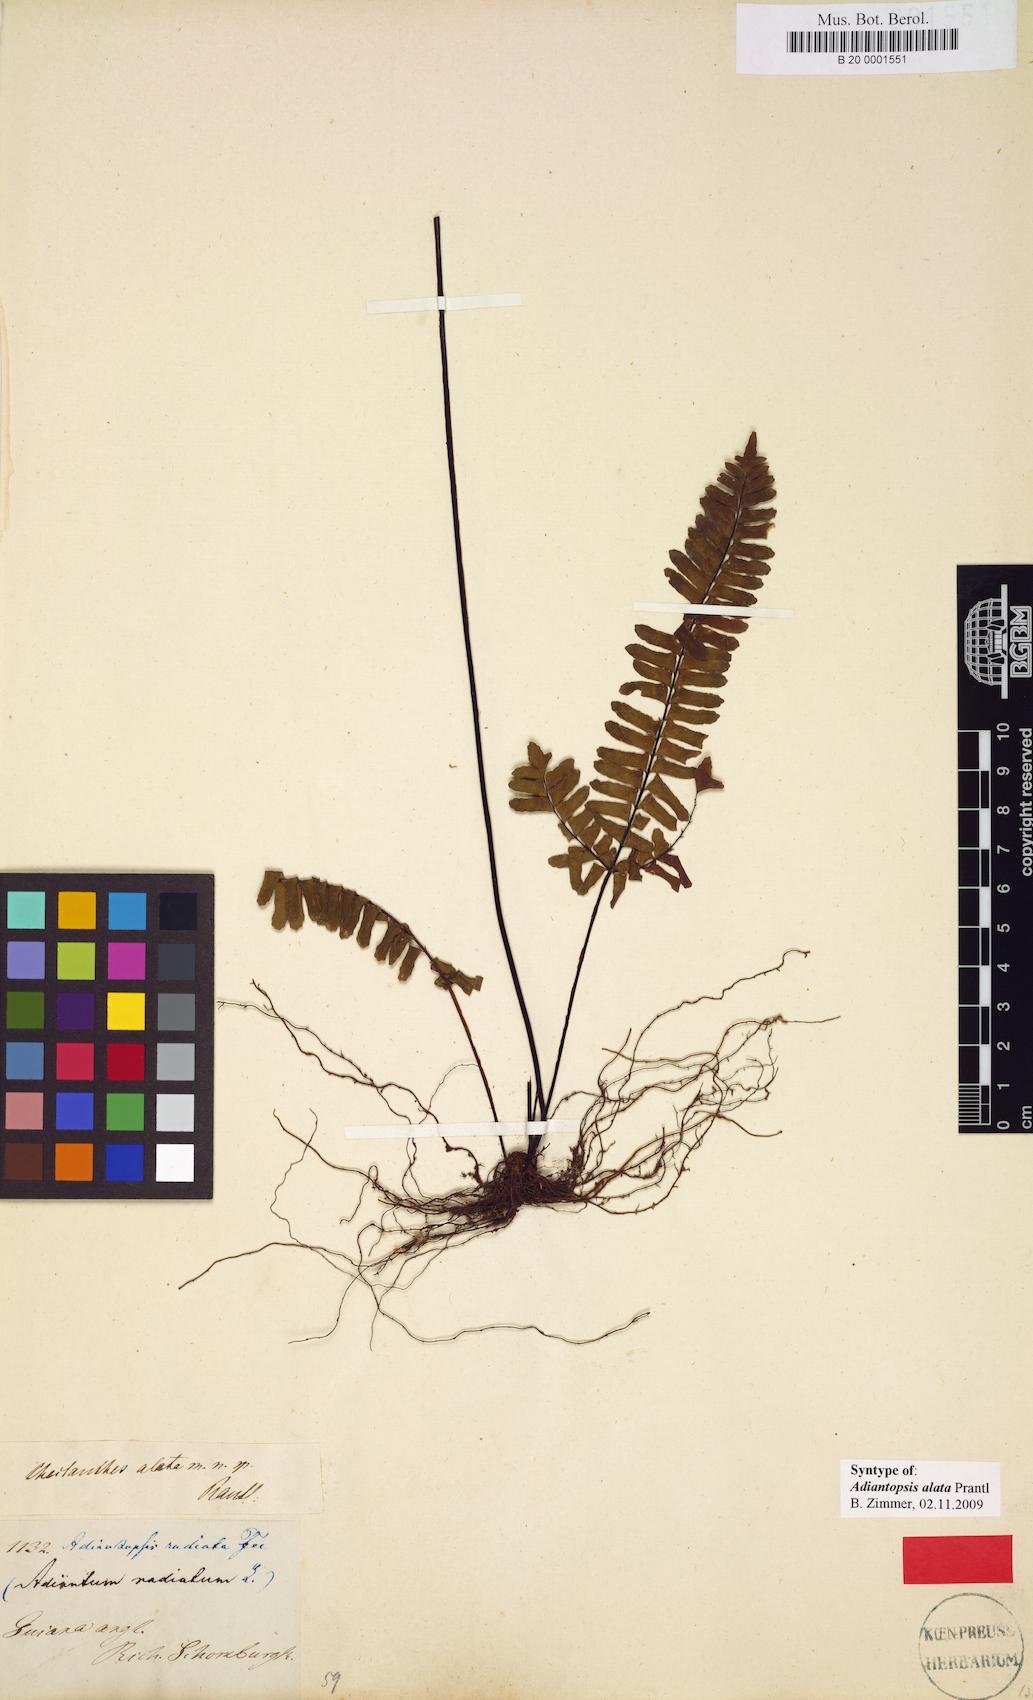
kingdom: Plantae
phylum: Tracheophyta
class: Polypodiopsida
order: Polypodiales
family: Pteridaceae
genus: Adiantopsis
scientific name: Adiantopsis alata
